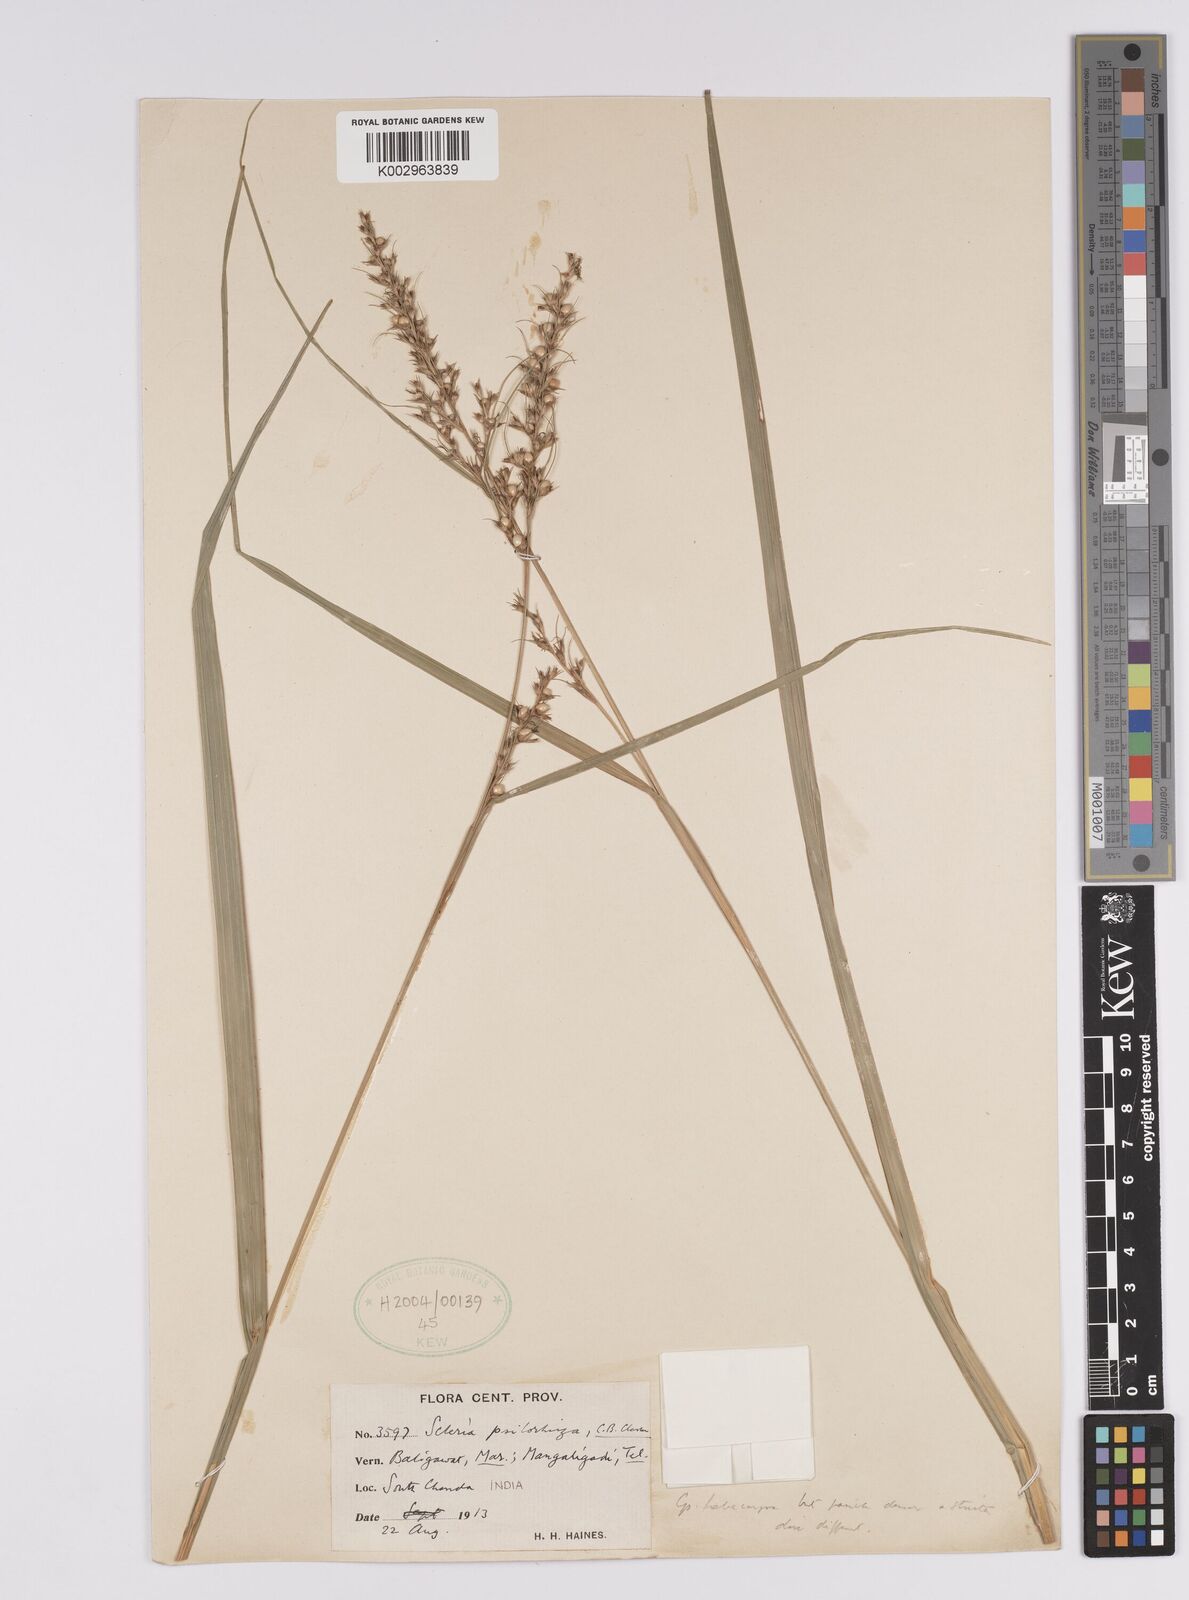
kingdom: Plantae
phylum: Tracheophyta
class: Liliopsida
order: Poales
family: Cyperaceae
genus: Scleria
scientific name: Scleria psilorrhiza
